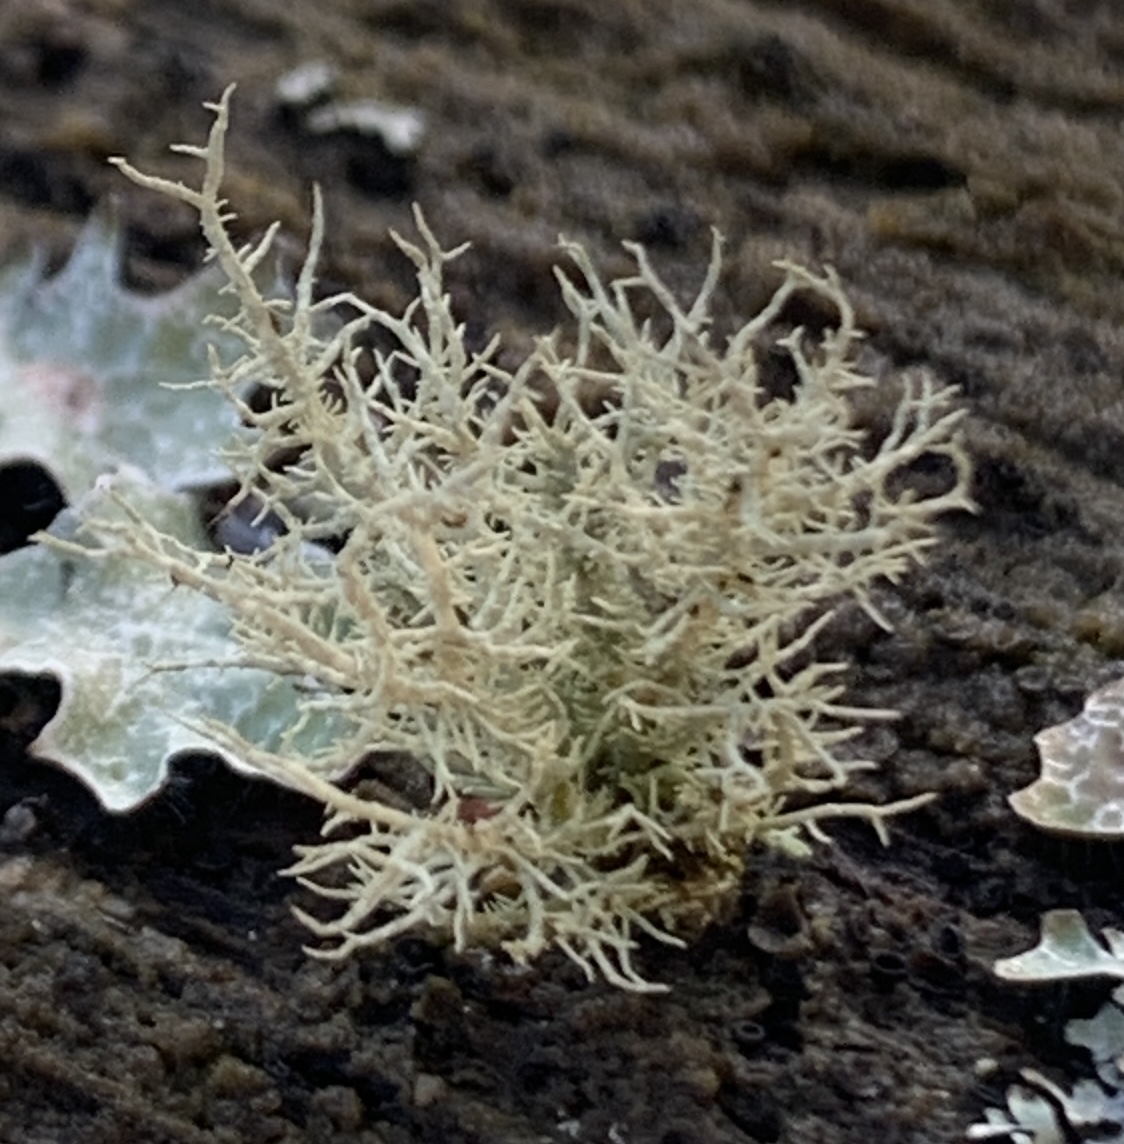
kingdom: Fungi
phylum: Ascomycota
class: Lecanoromycetes
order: Lecanorales
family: Parmeliaceae
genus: Usnea
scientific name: Usnea hirta
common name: liden skæglav
